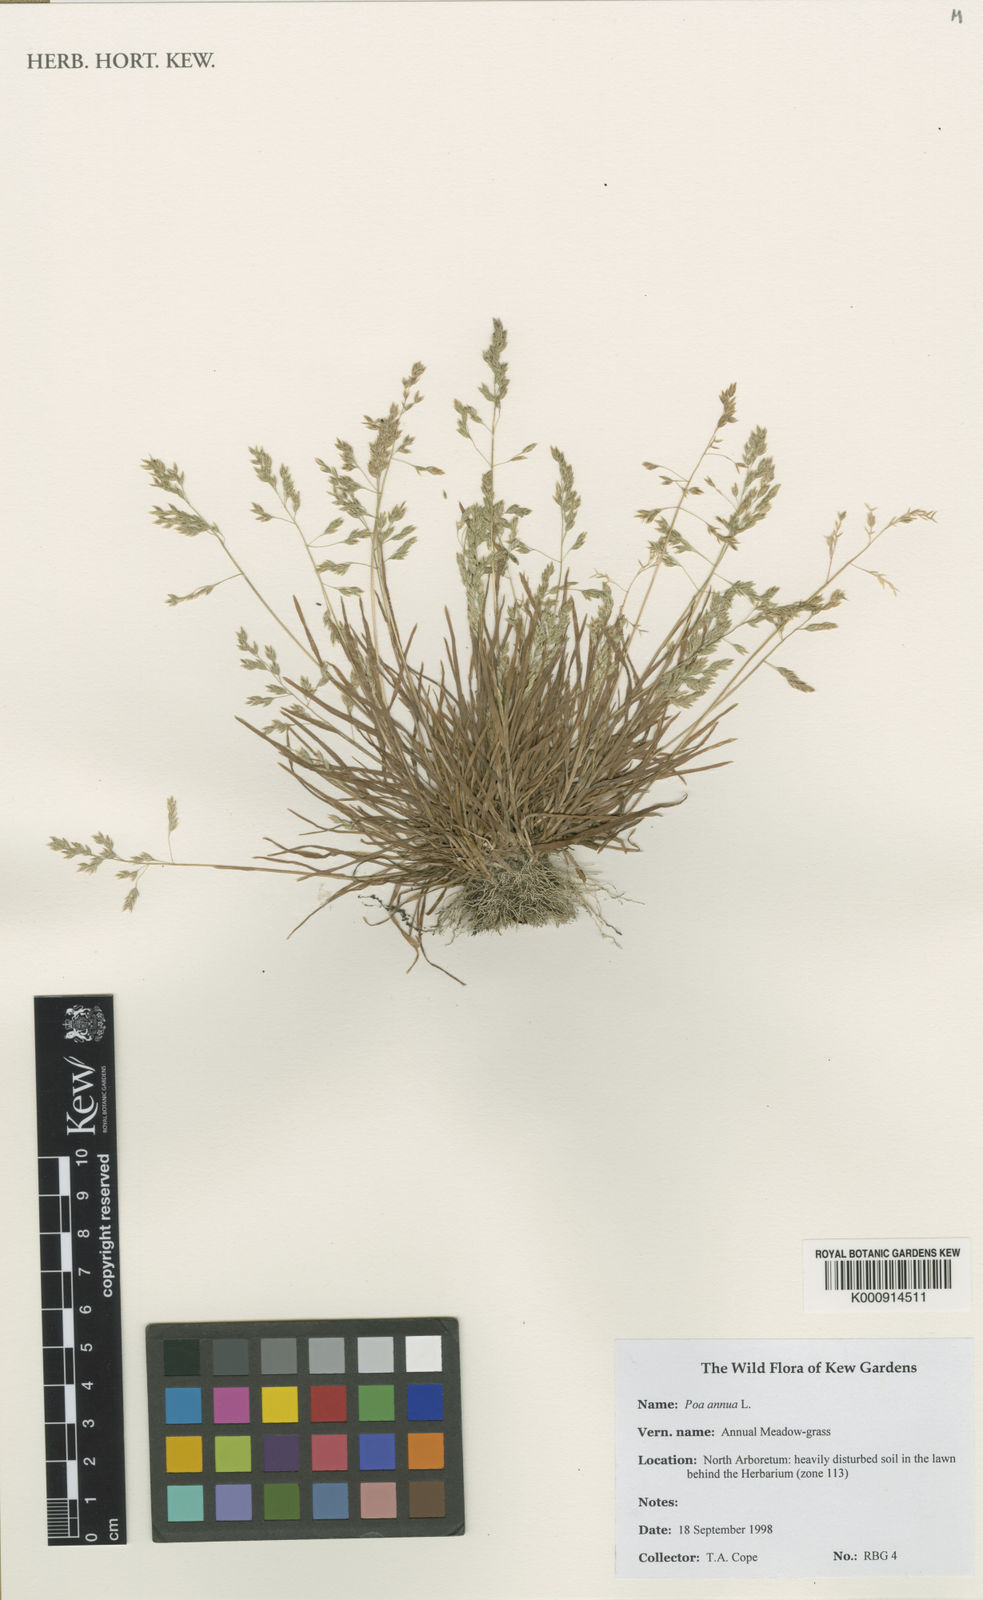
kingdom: Plantae
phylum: Tracheophyta
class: Liliopsida
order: Poales
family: Poaceae
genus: Poa
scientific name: Poa annua
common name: Annual bluegrass
